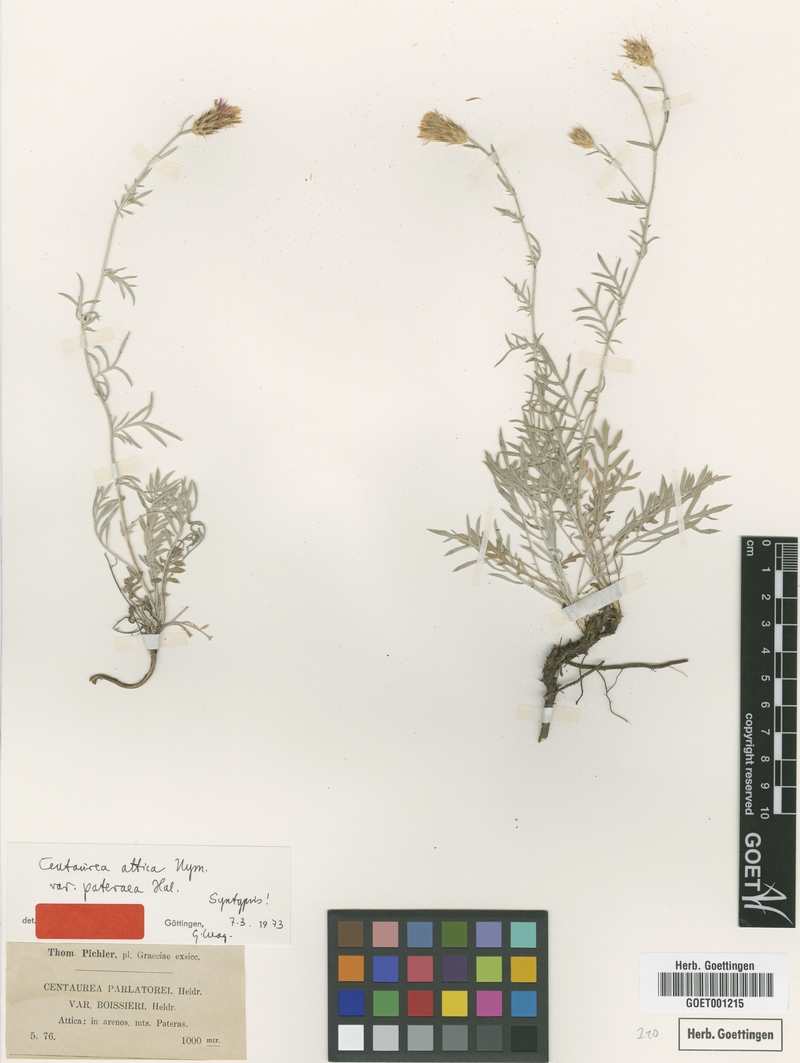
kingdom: Plantae
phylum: Tracheophyta
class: Magnoliopsida
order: Asterales
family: Asteraceae
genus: Centaurea
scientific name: Centaurea subsericans
